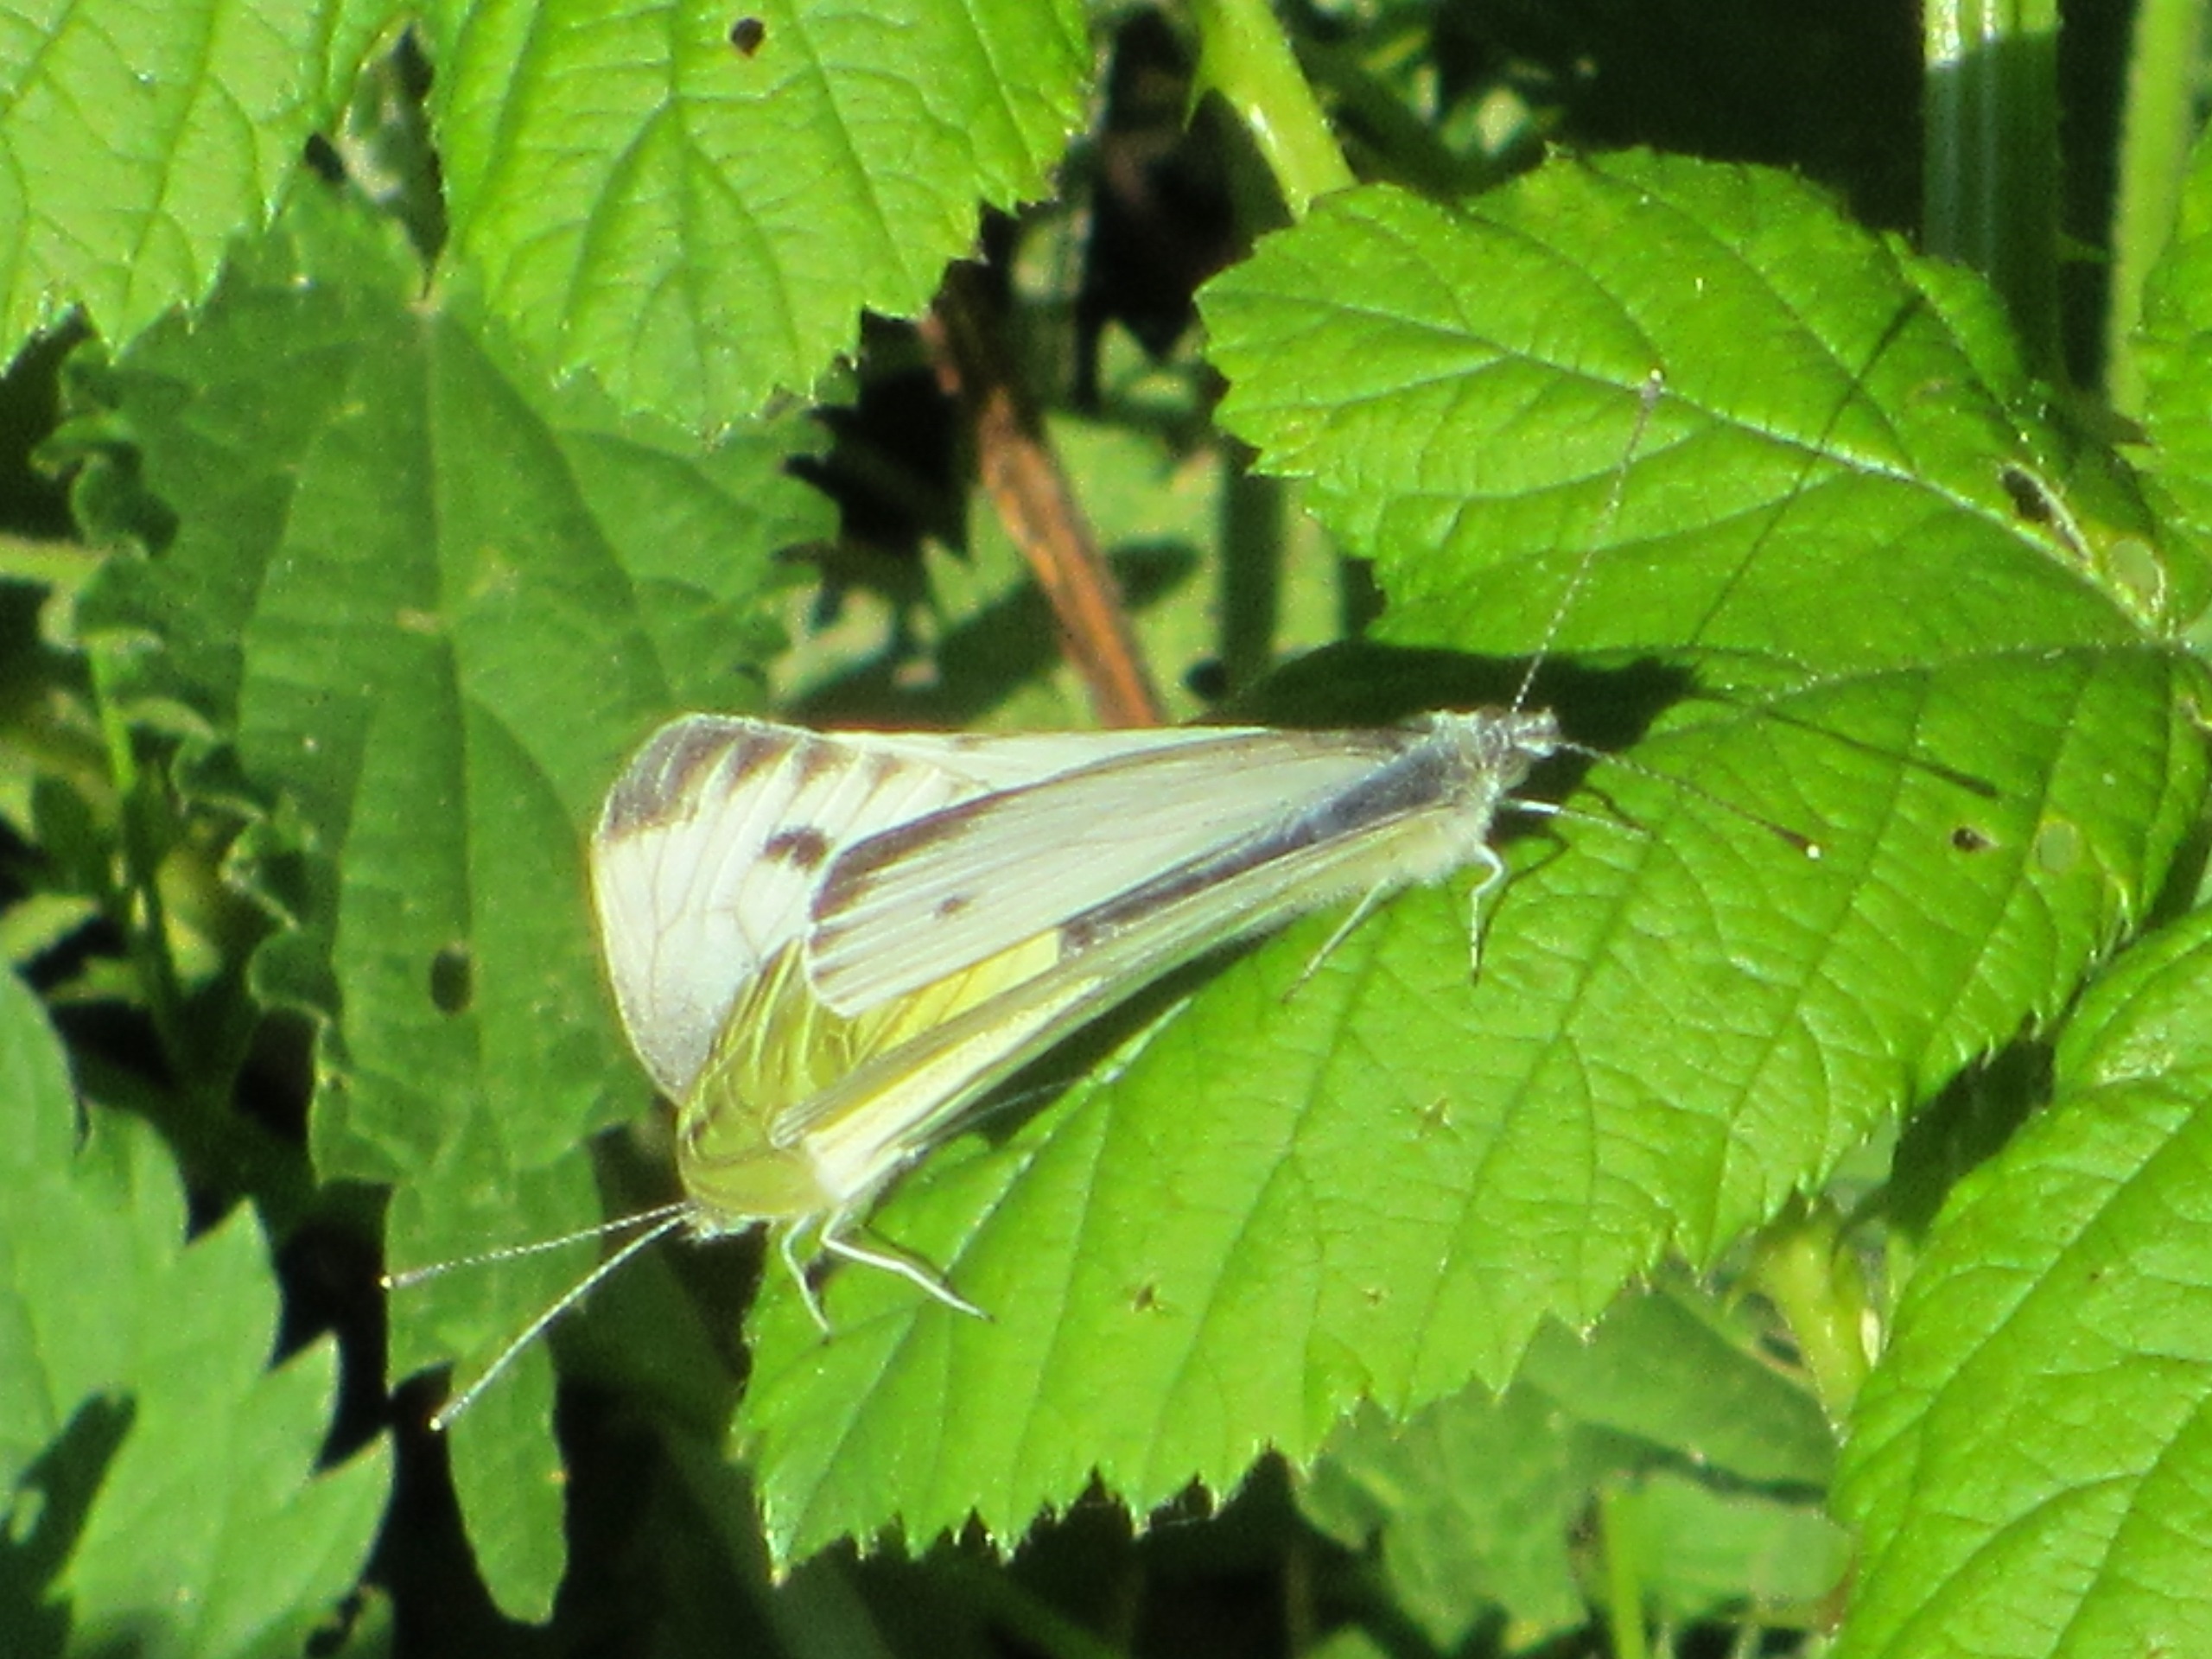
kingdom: Animalia
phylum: Arthropoda
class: Insecta
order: Lepidoptera
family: Pieridae
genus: Pieris
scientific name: Pieris napi
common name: Grønåret kålsommerfugl
